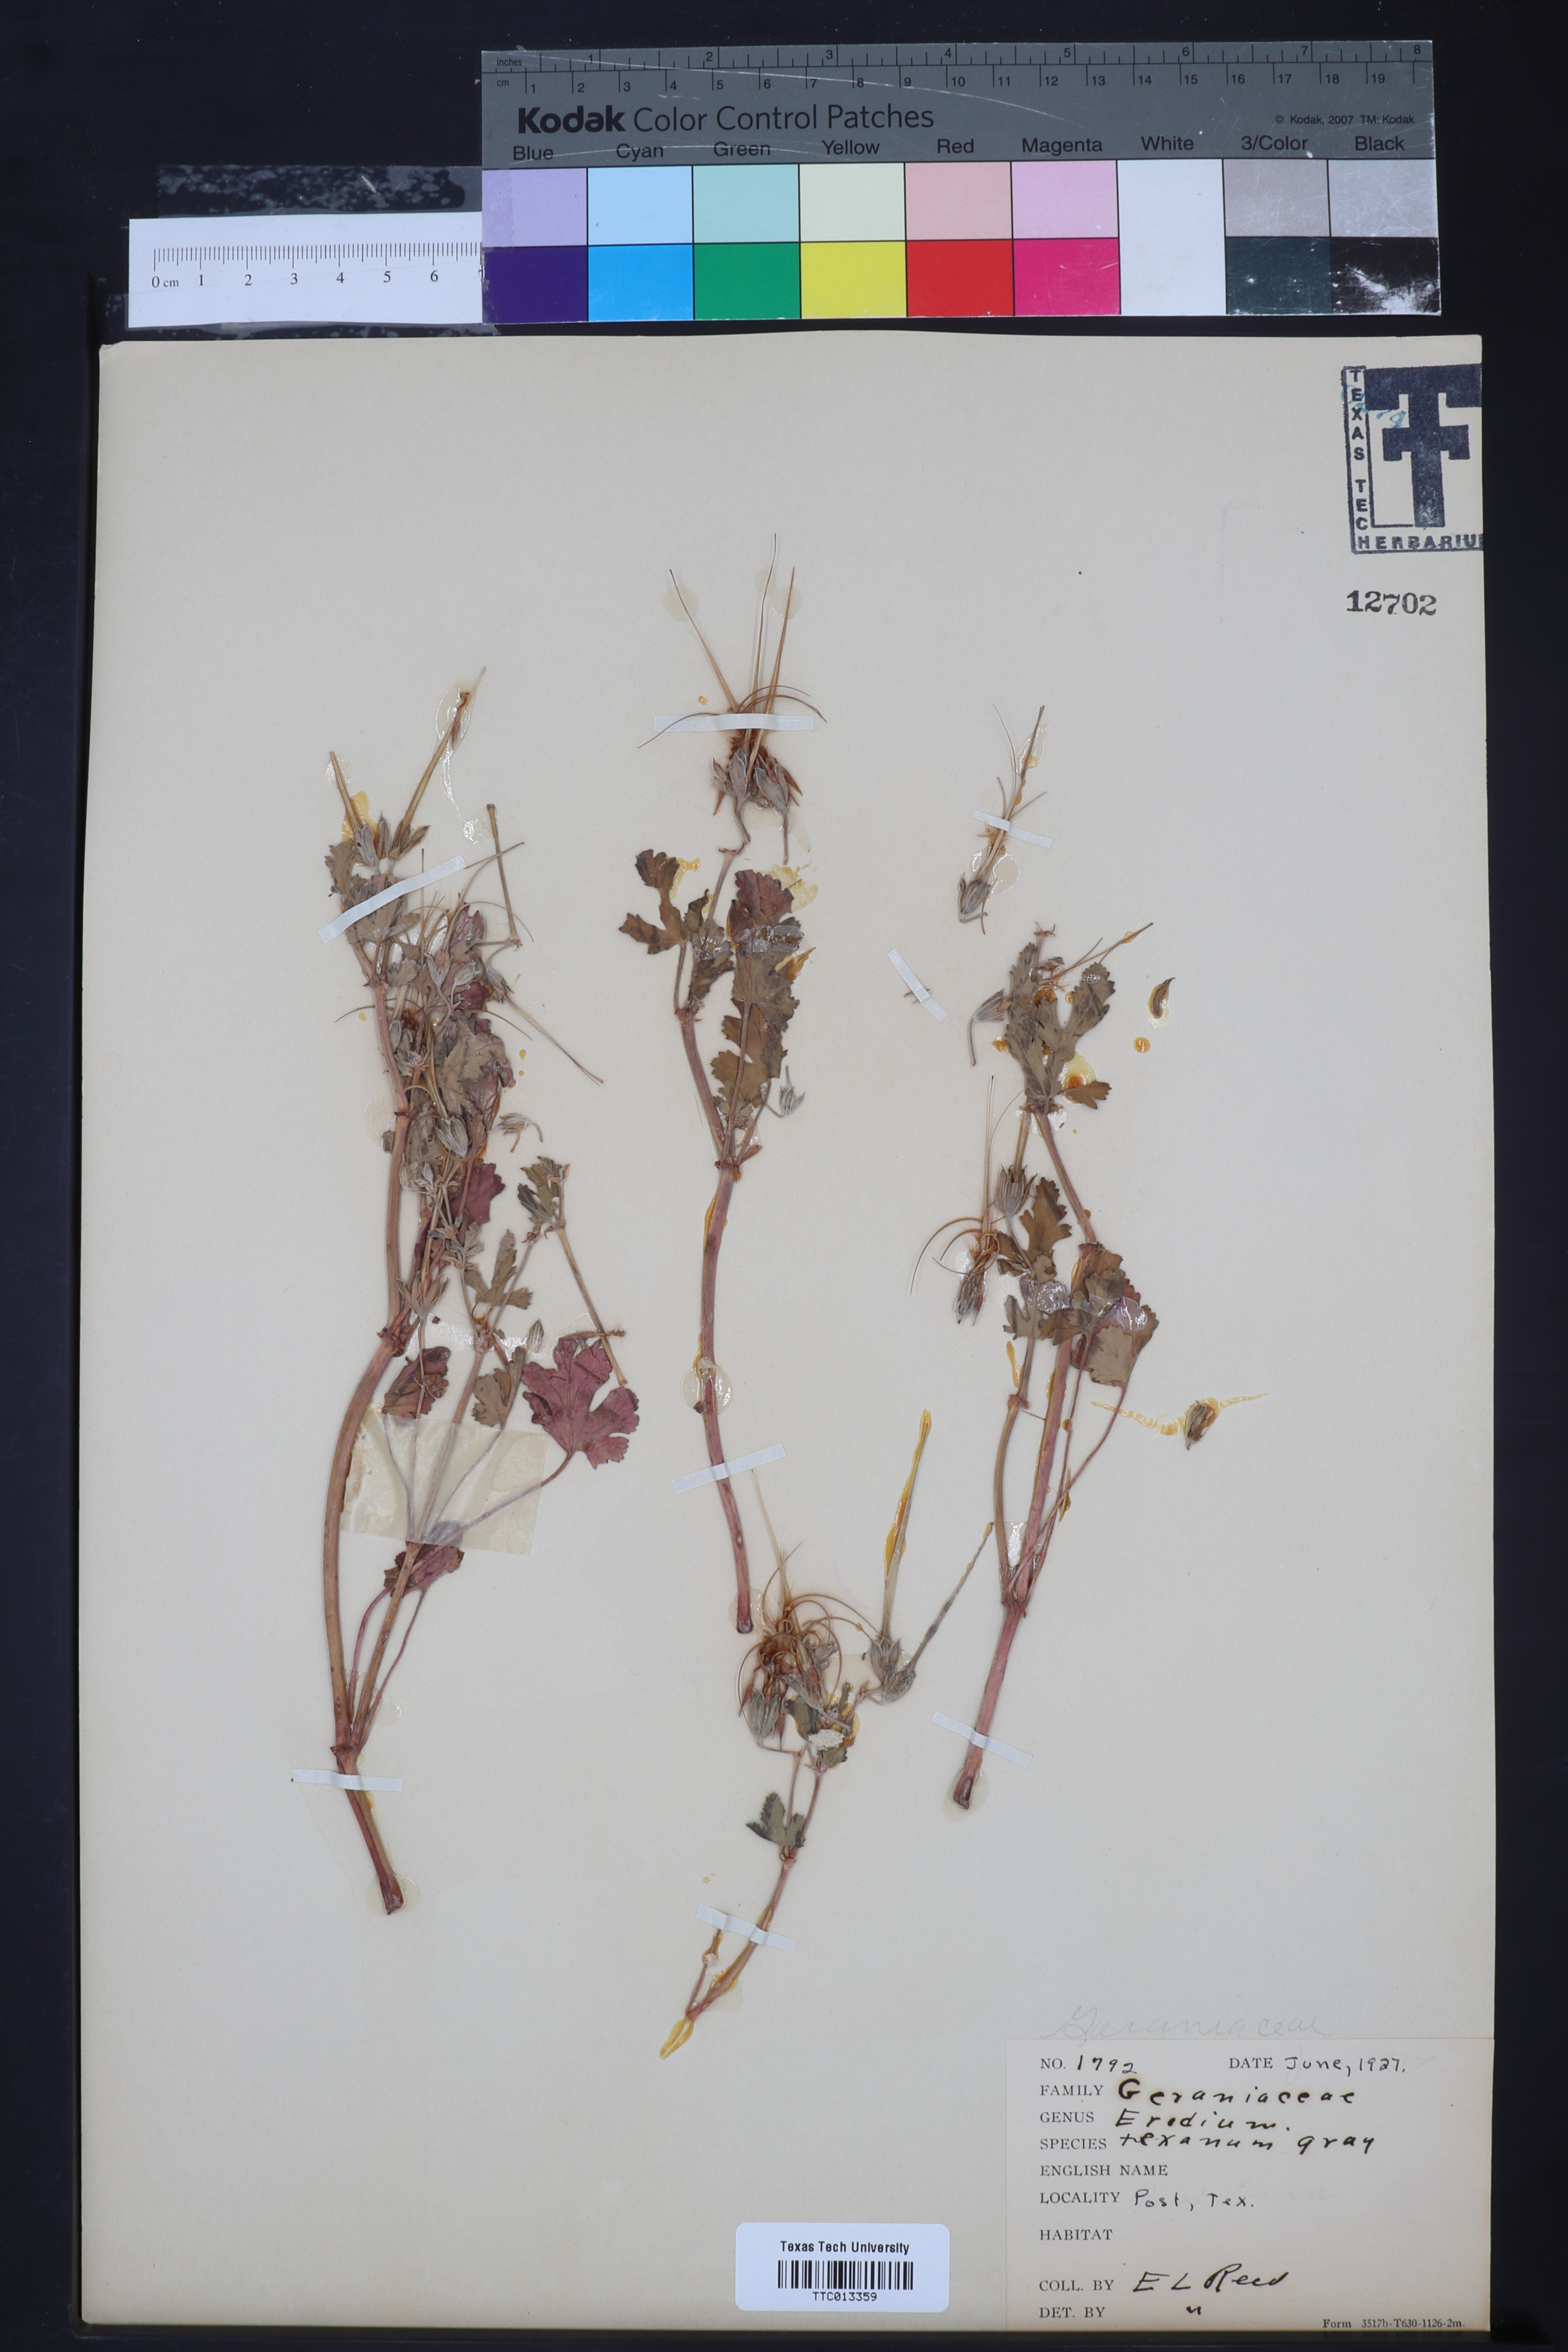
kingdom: Plantae
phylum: Tracheophyta
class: Magnoliopsida
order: Geraniales
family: Geraniaceae
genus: Erodium
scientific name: Erodium texanum
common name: Texas stork's-bill
